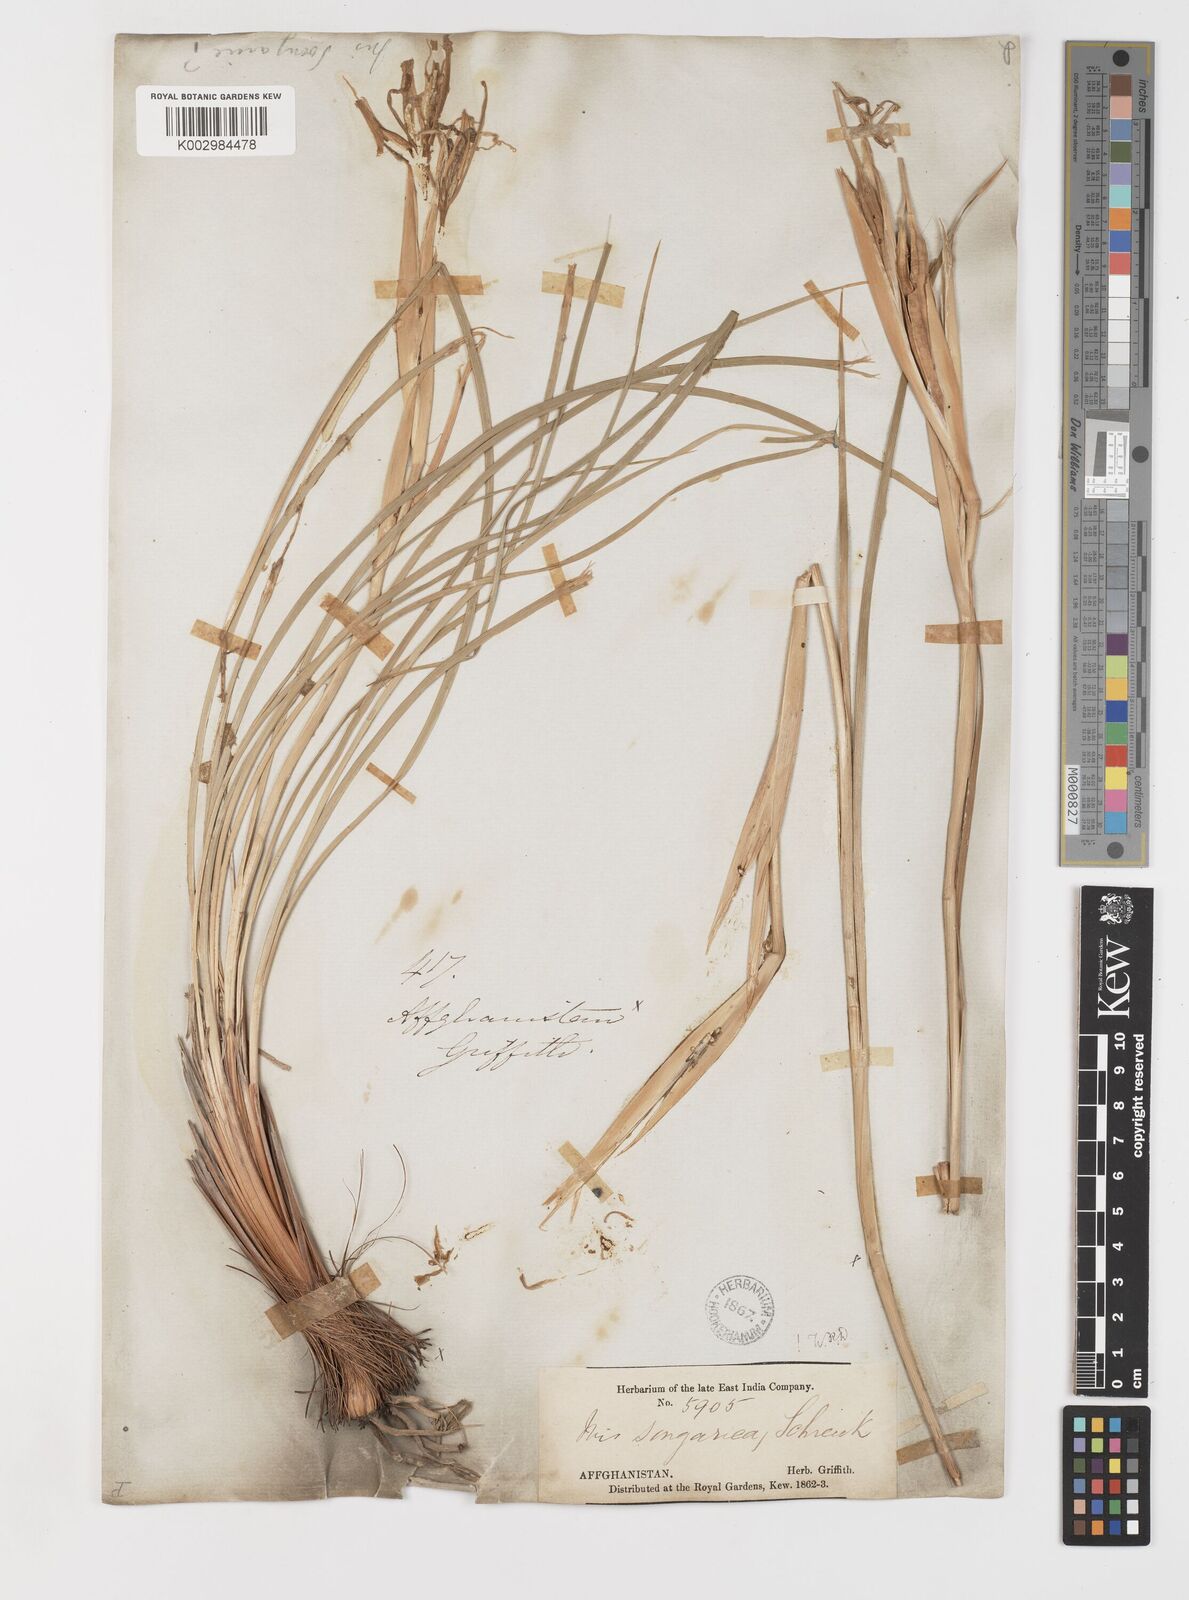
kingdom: Plantae
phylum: Tracheophyta
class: Liliopsida
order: Asparagales
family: Iridaceae
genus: Iris
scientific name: Iris songarica
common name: Songar iris
